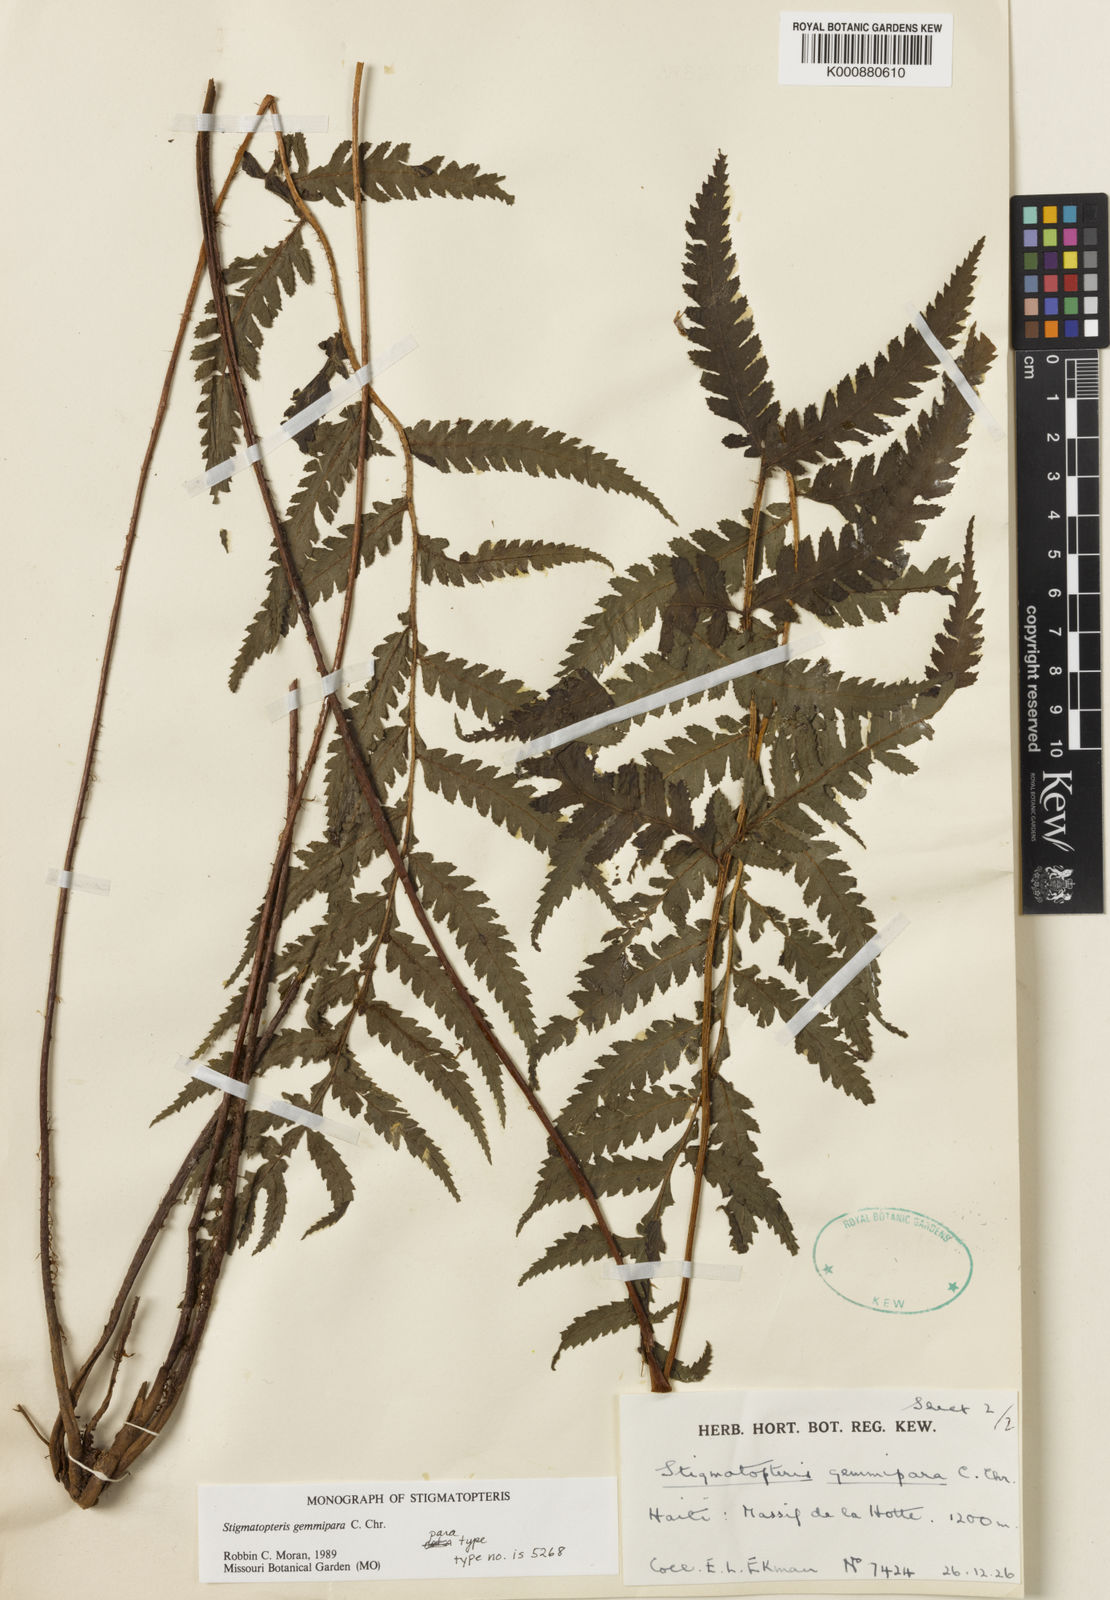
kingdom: Plantae
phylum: Tracheophyta
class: Polypodiopsida
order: Polypodiales
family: Dryopteridaceae
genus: Stigmatopteris
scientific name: Stigmatopteris gemmipara
